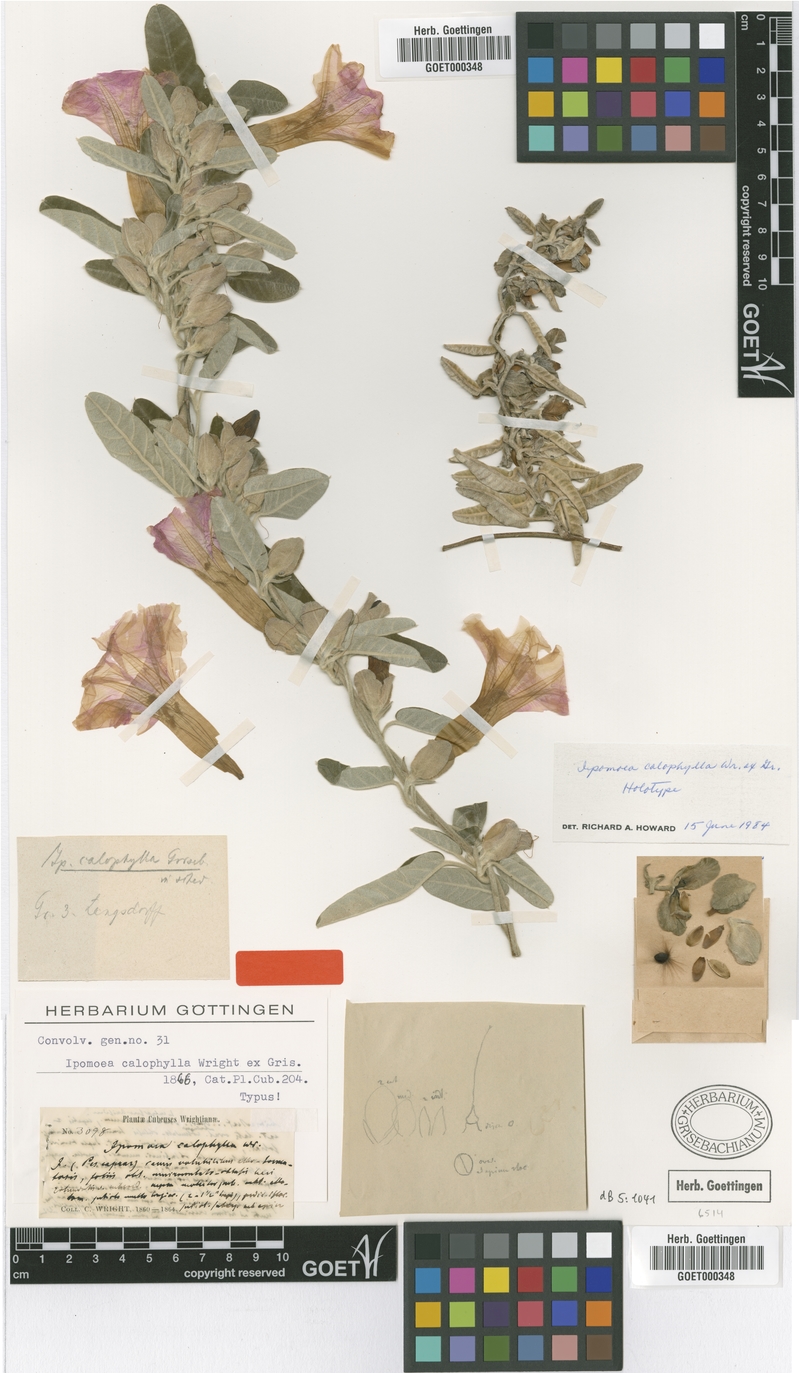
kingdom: Plantae
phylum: Tracheophyta
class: Magnoliopsida
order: Solanales
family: Convolvulaceae
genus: Ipomoea
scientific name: Ipomoea calophylla
